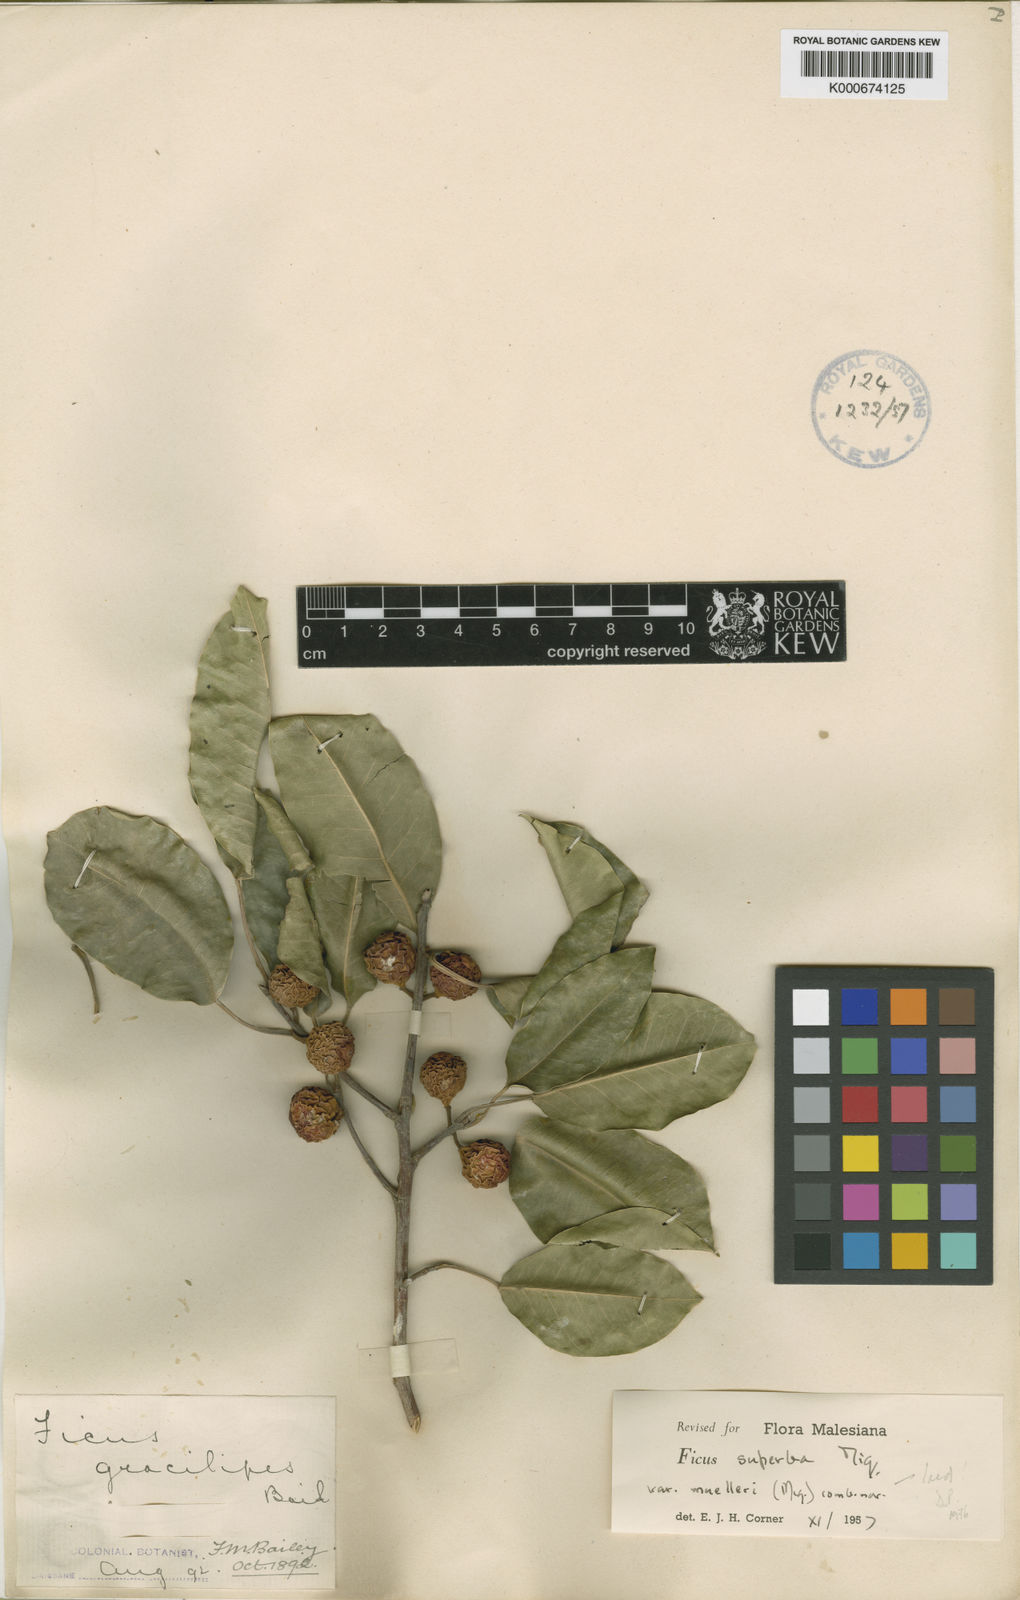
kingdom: Plantae
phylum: Tracheophyta
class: Magnoliopsida
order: Rosales
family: Moraceae
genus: Ficus
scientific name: Ficus henneana
